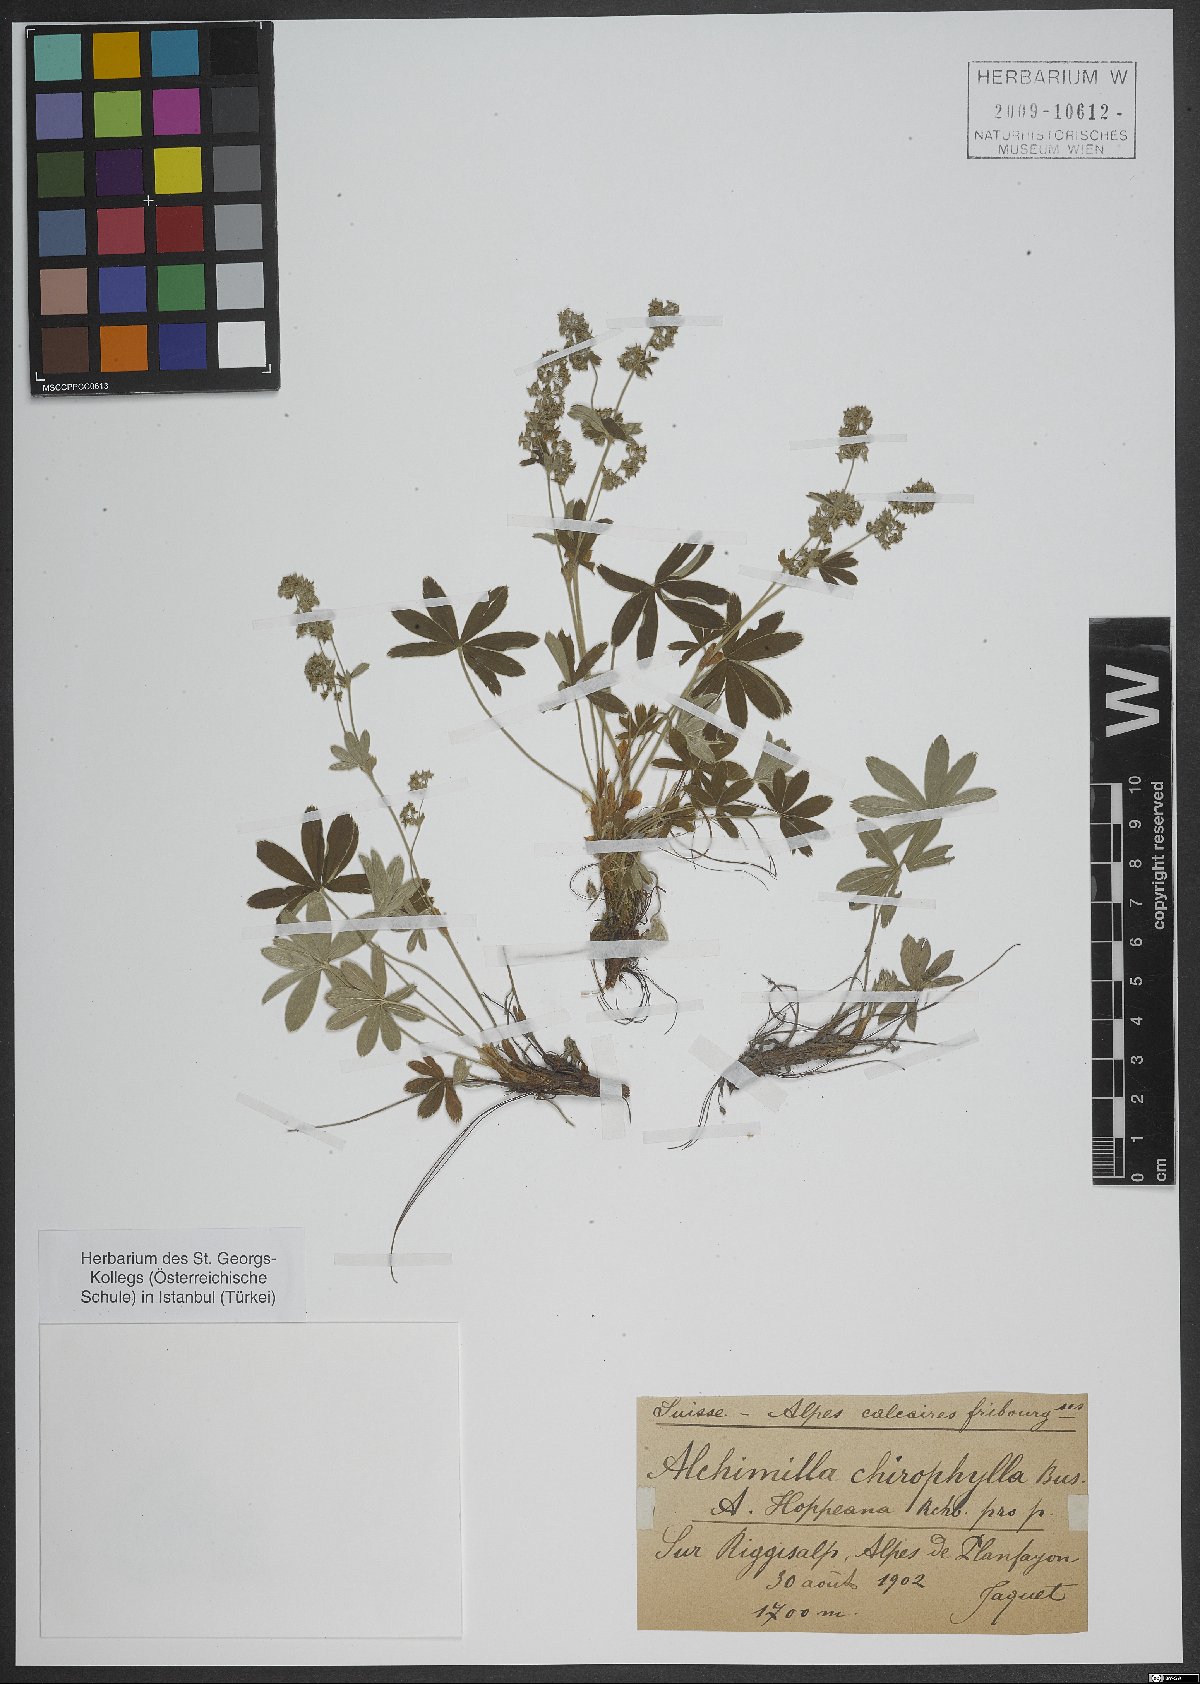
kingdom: Plantae
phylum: Tracheophyta
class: Magnoliopsida
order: Rosales
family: Rosaceae
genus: Alchemilla
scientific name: Alchemilla chirophylla
